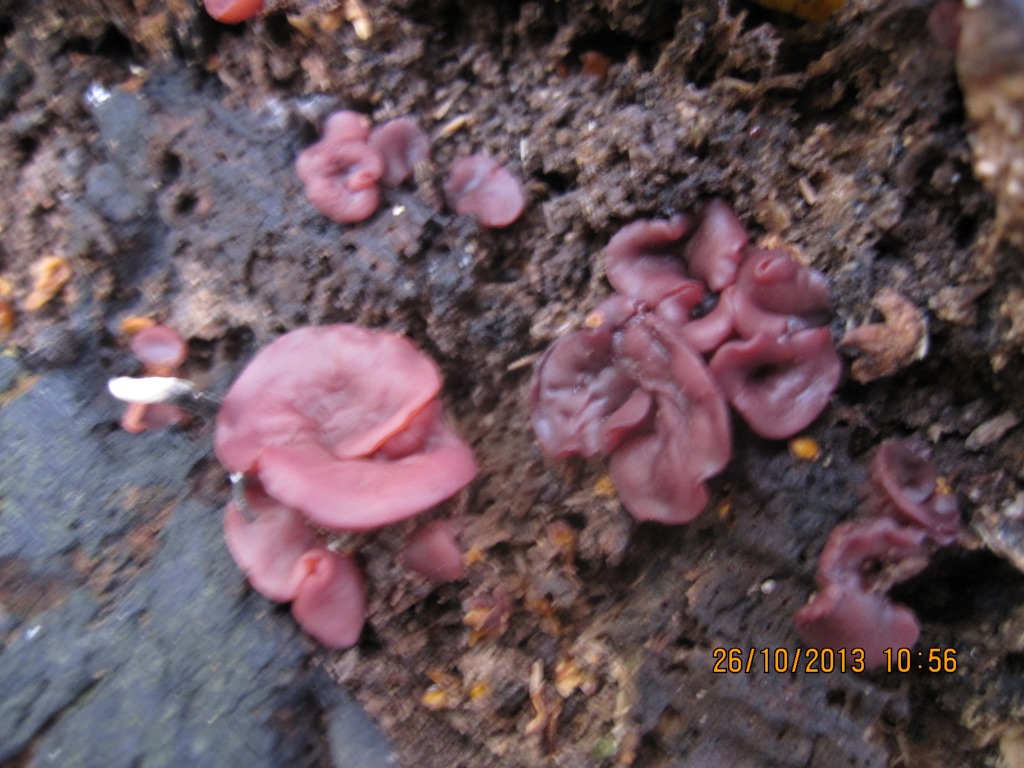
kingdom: Fungi
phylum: Ascomycota
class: Leotiomycetes
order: Helotiales
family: Gelatinodiscaceae
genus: Ascocoryne
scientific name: Ascocoryne cylichnium
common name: stor sejskive
